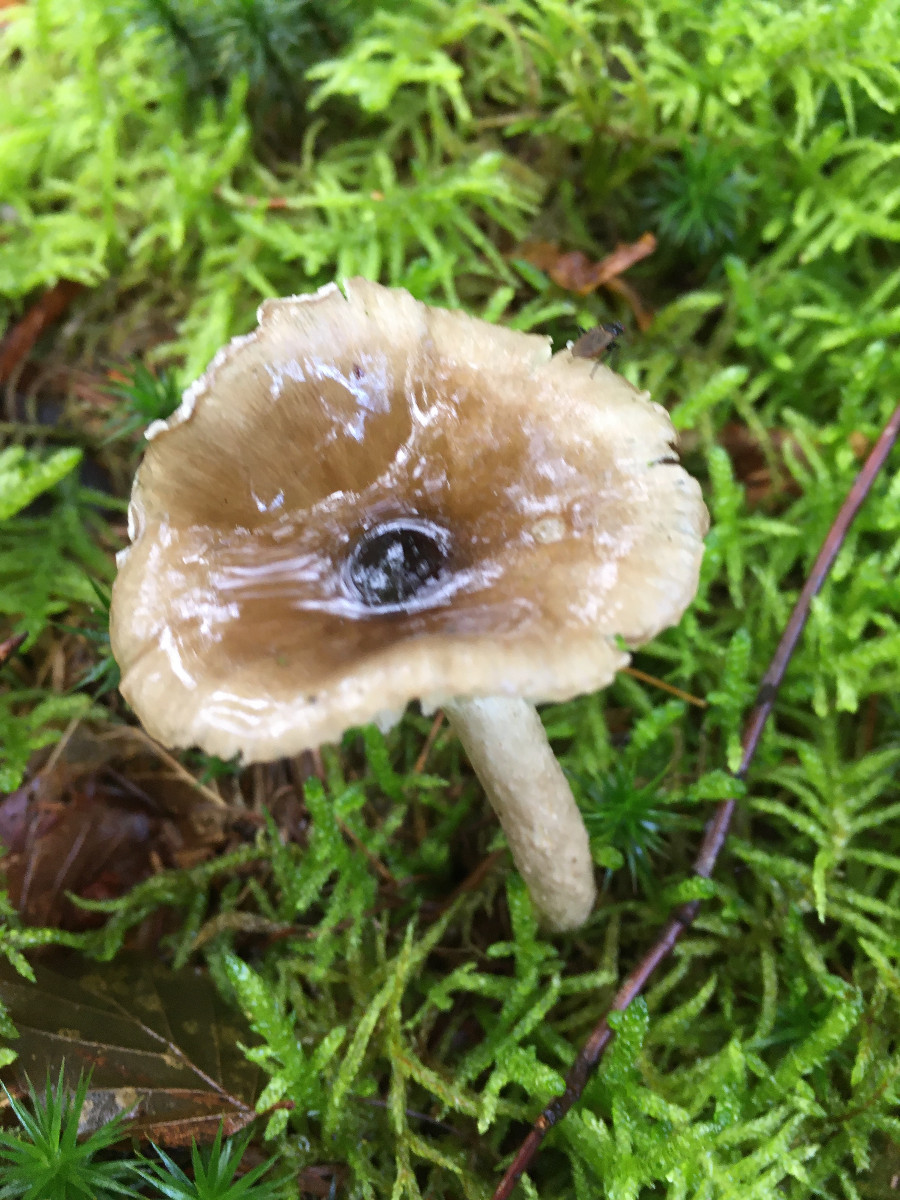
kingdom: Fungi
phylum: Basidiomycota
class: Agaricomycetes
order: Agaricales
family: Hygrophoraceae
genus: Hygrophorus
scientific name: Hygrophorus olivaceoalbus
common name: hvidbrun sneglehat
